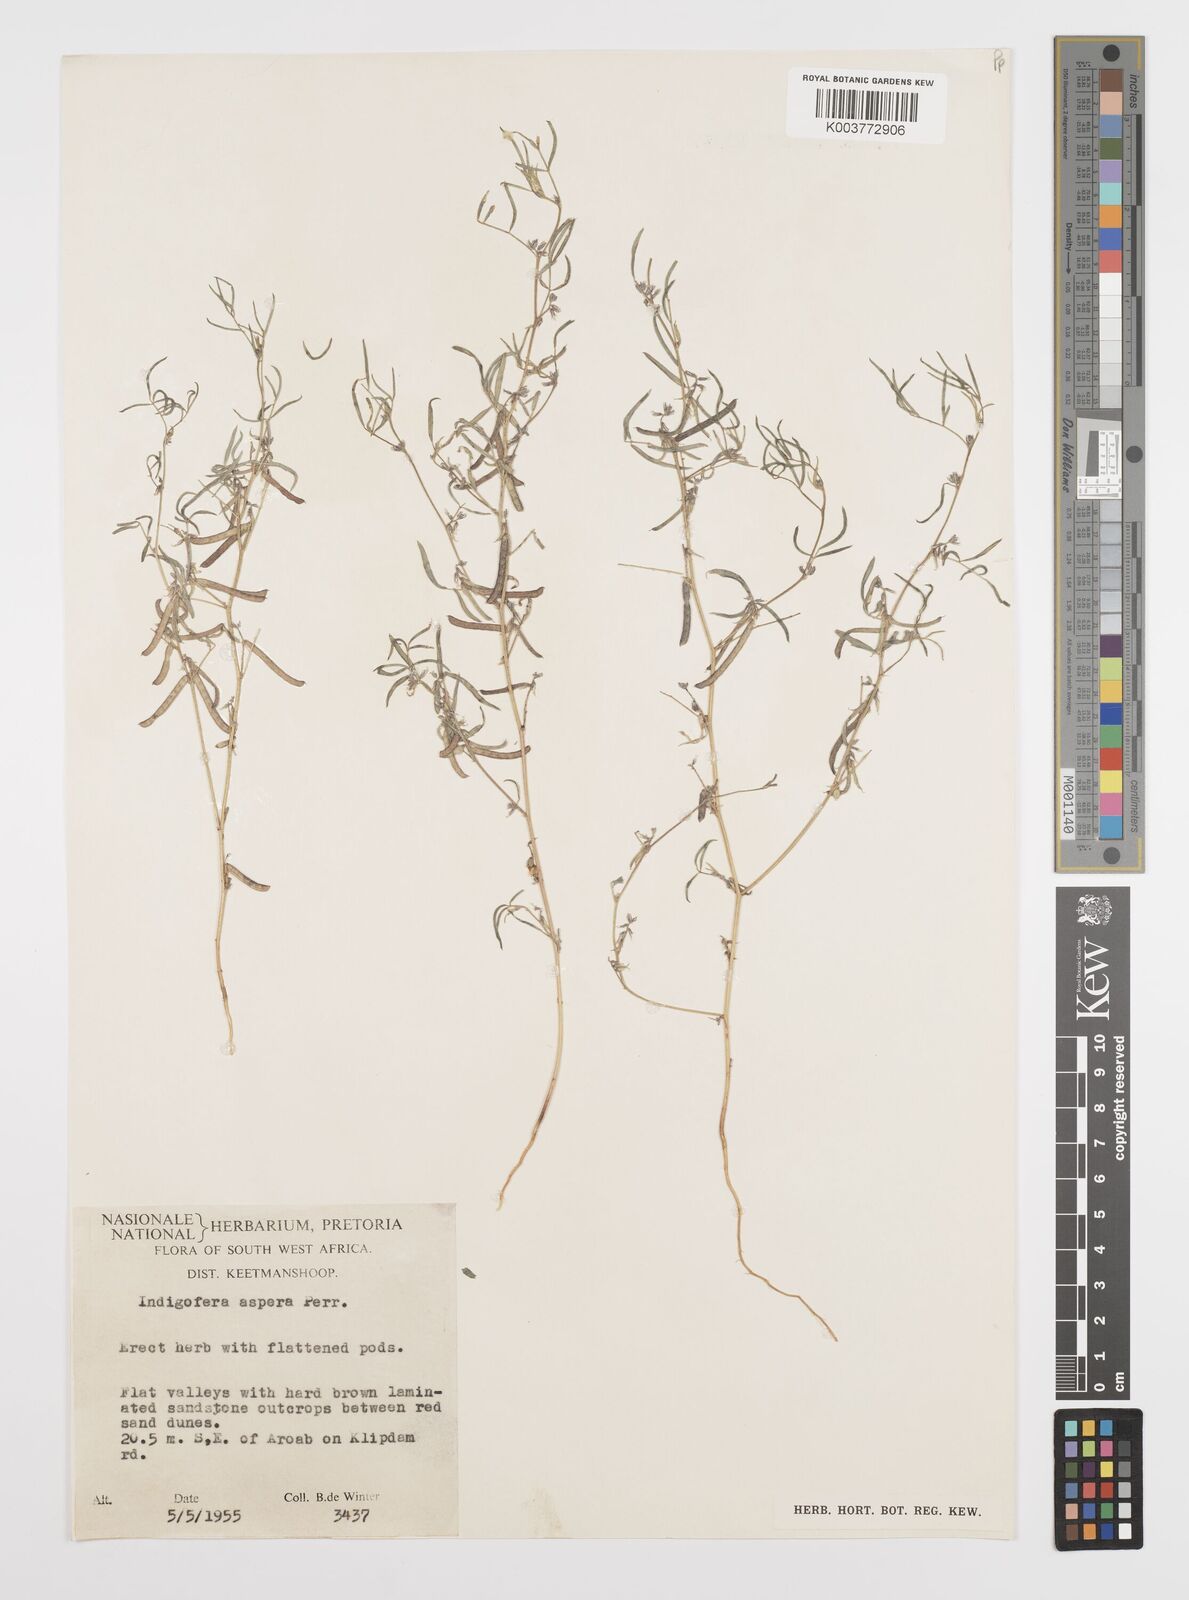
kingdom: Plantae
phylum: Tracheophyta
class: Magnoliopsida
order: Fabales
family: Fabaceae
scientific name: Fabaceae
